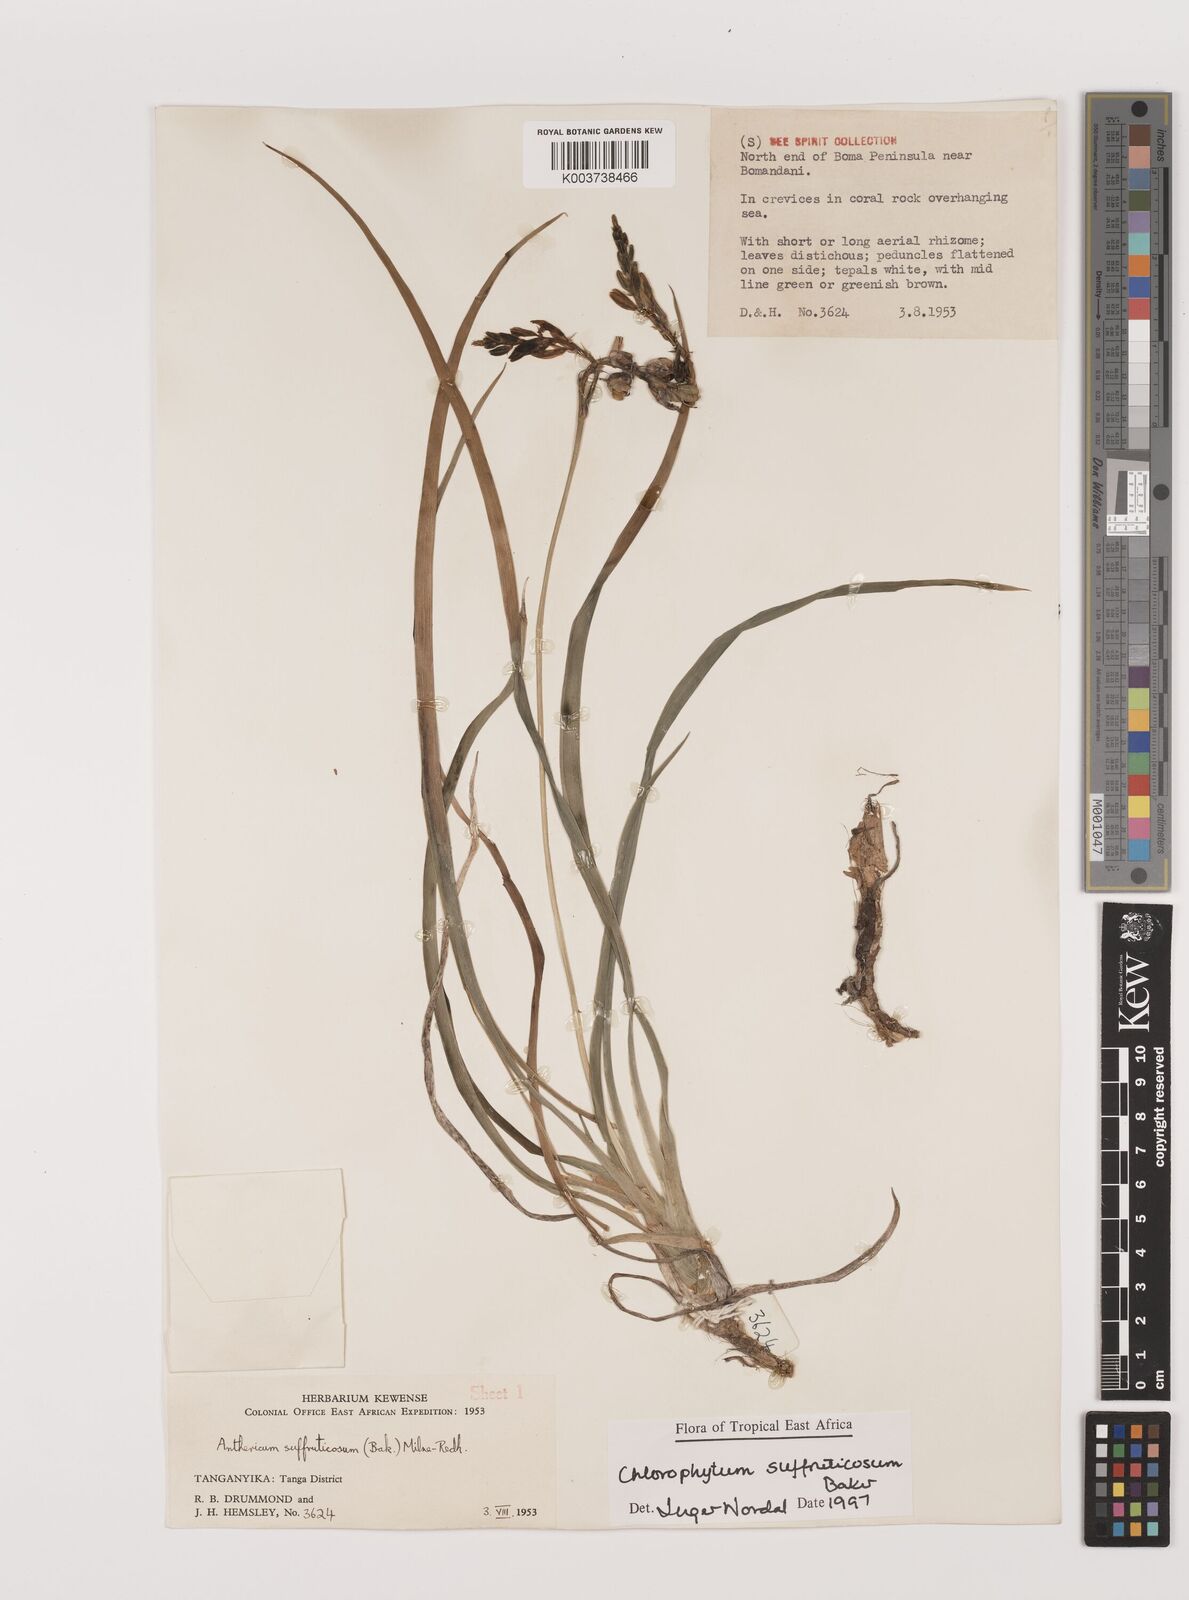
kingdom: Plantae
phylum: Tracheophyta
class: Liliopsida
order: Asparagales
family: Asparagaceae
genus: Chlorophytum
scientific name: Chlorophytum suffruticosum
